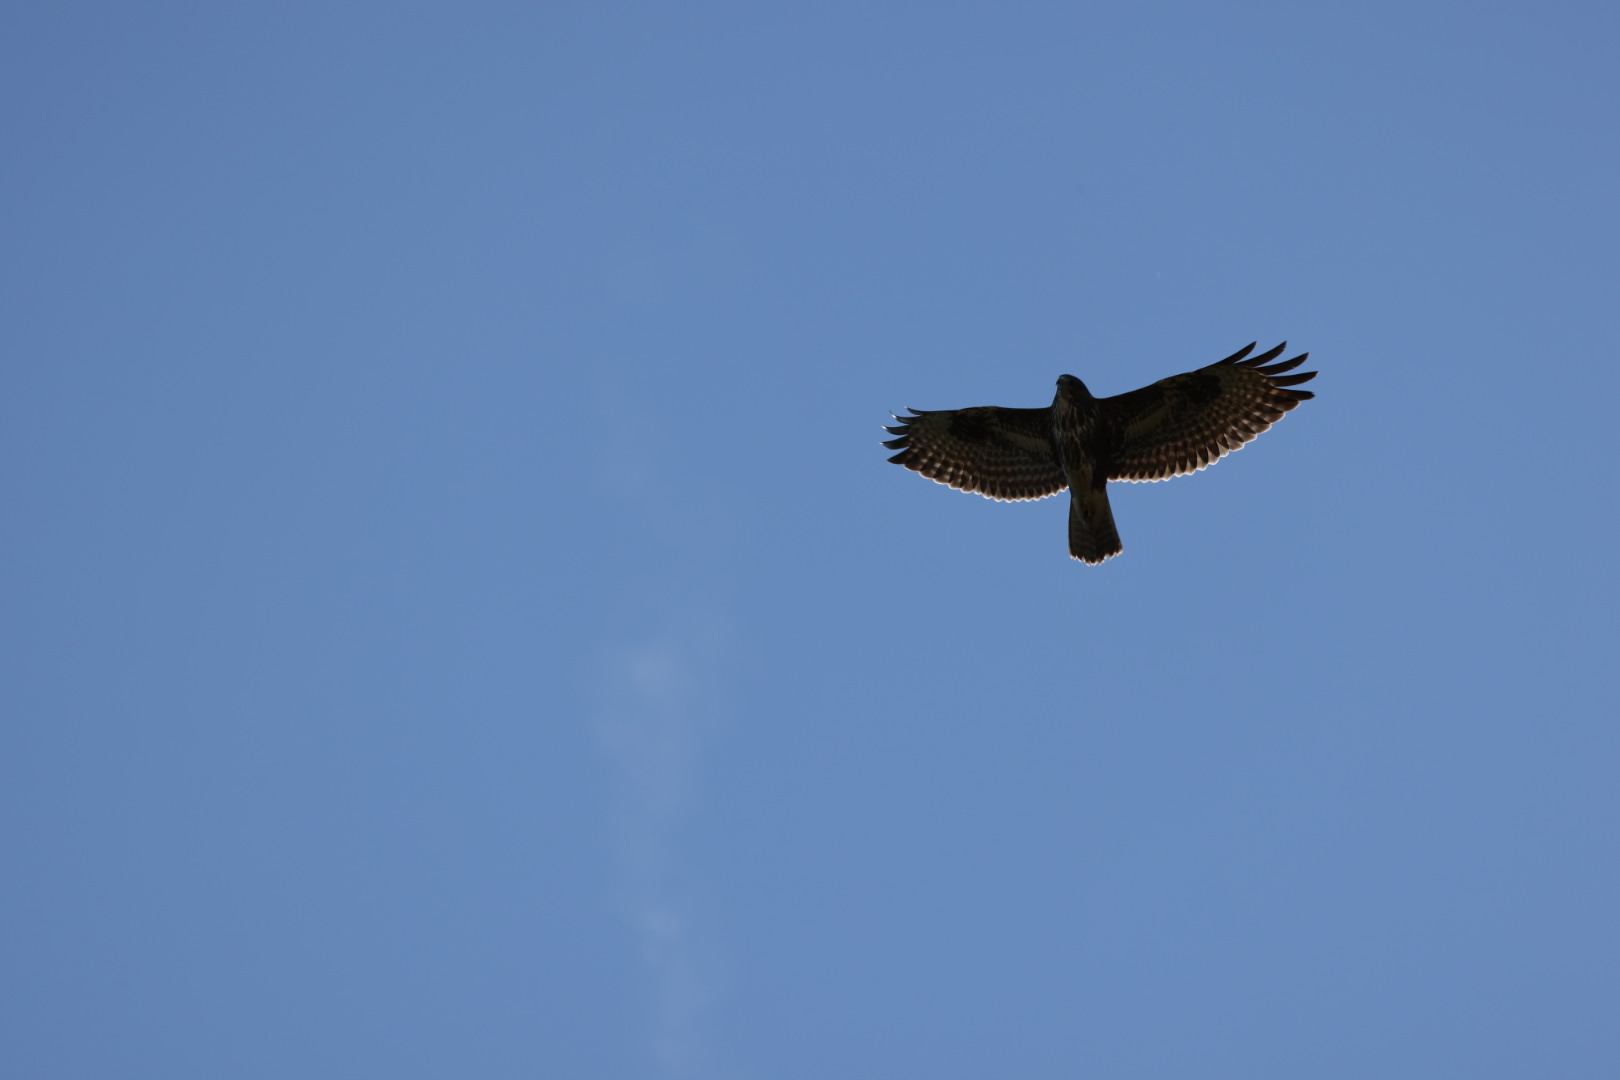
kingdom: Animalia
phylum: Chordata
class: Aves
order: Accipitriformes
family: Accipitridae
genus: Buteo
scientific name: Buteo buteo
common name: Musvåge
